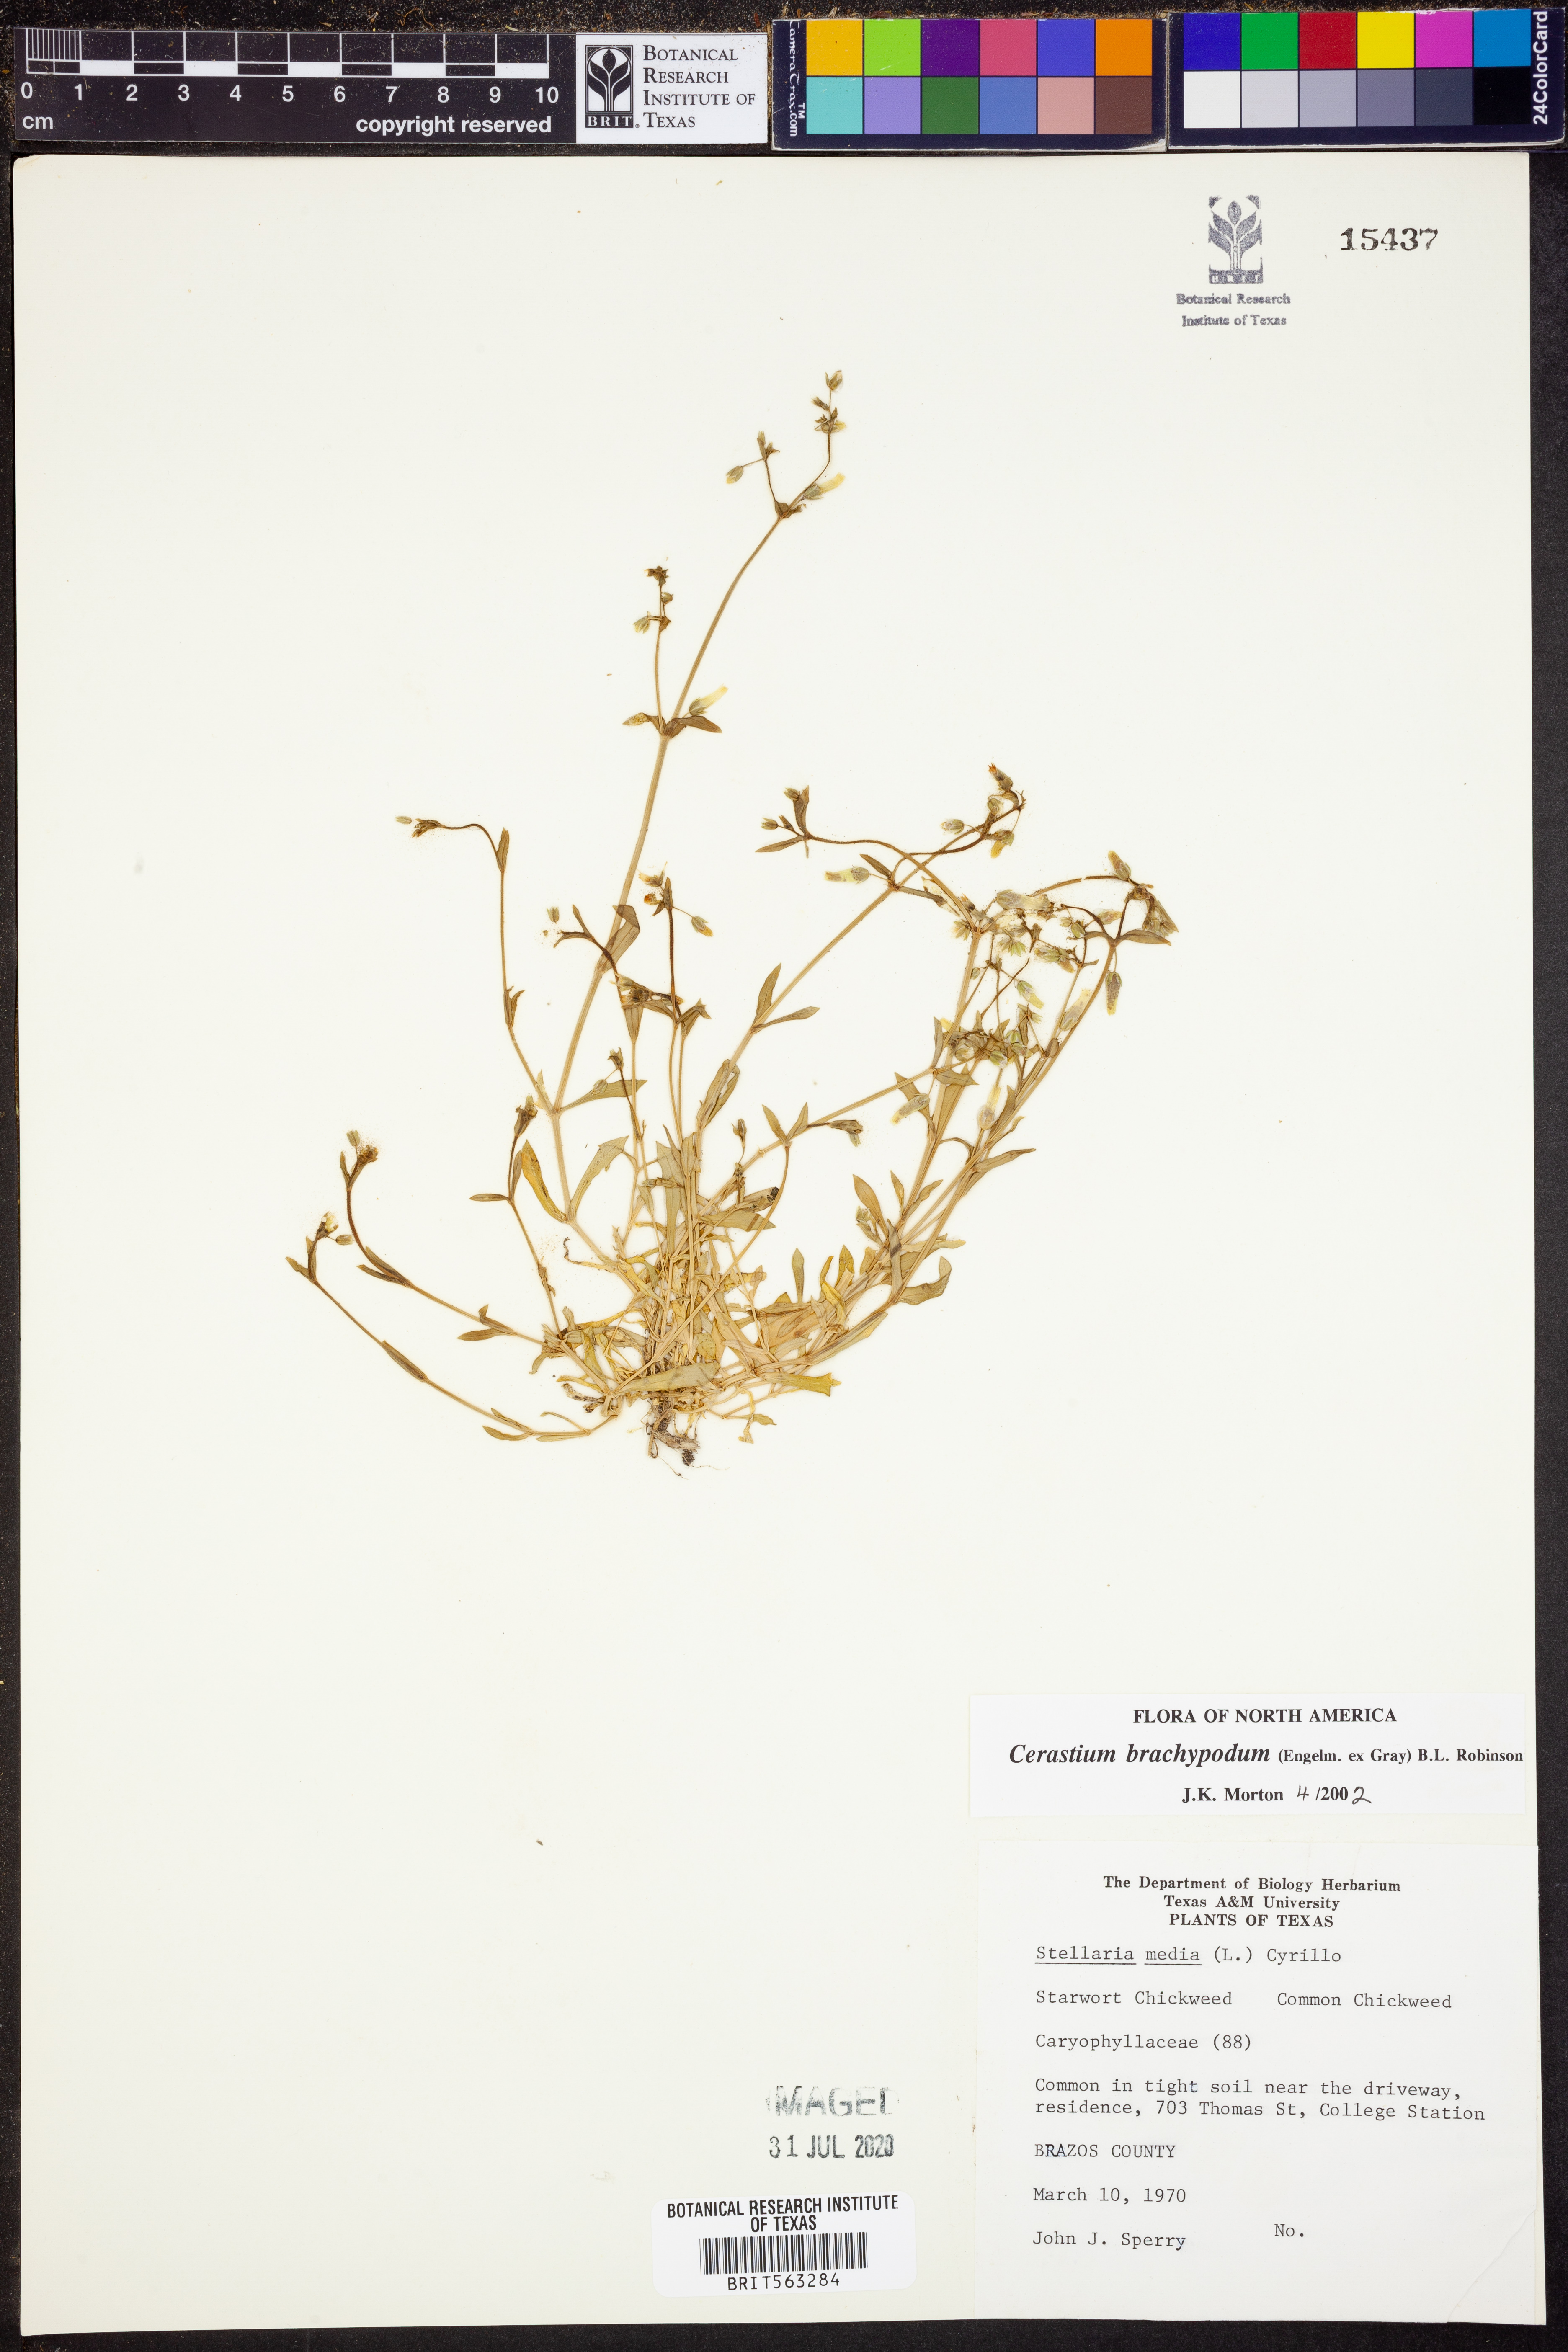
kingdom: Plantae
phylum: Tracheophyta
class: Magnoliopsida
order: Caryophyllales
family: Caryophyllaceae
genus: Cerastium
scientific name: Cerastium brachypodum
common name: Short-pedicelled nodding chickweed
